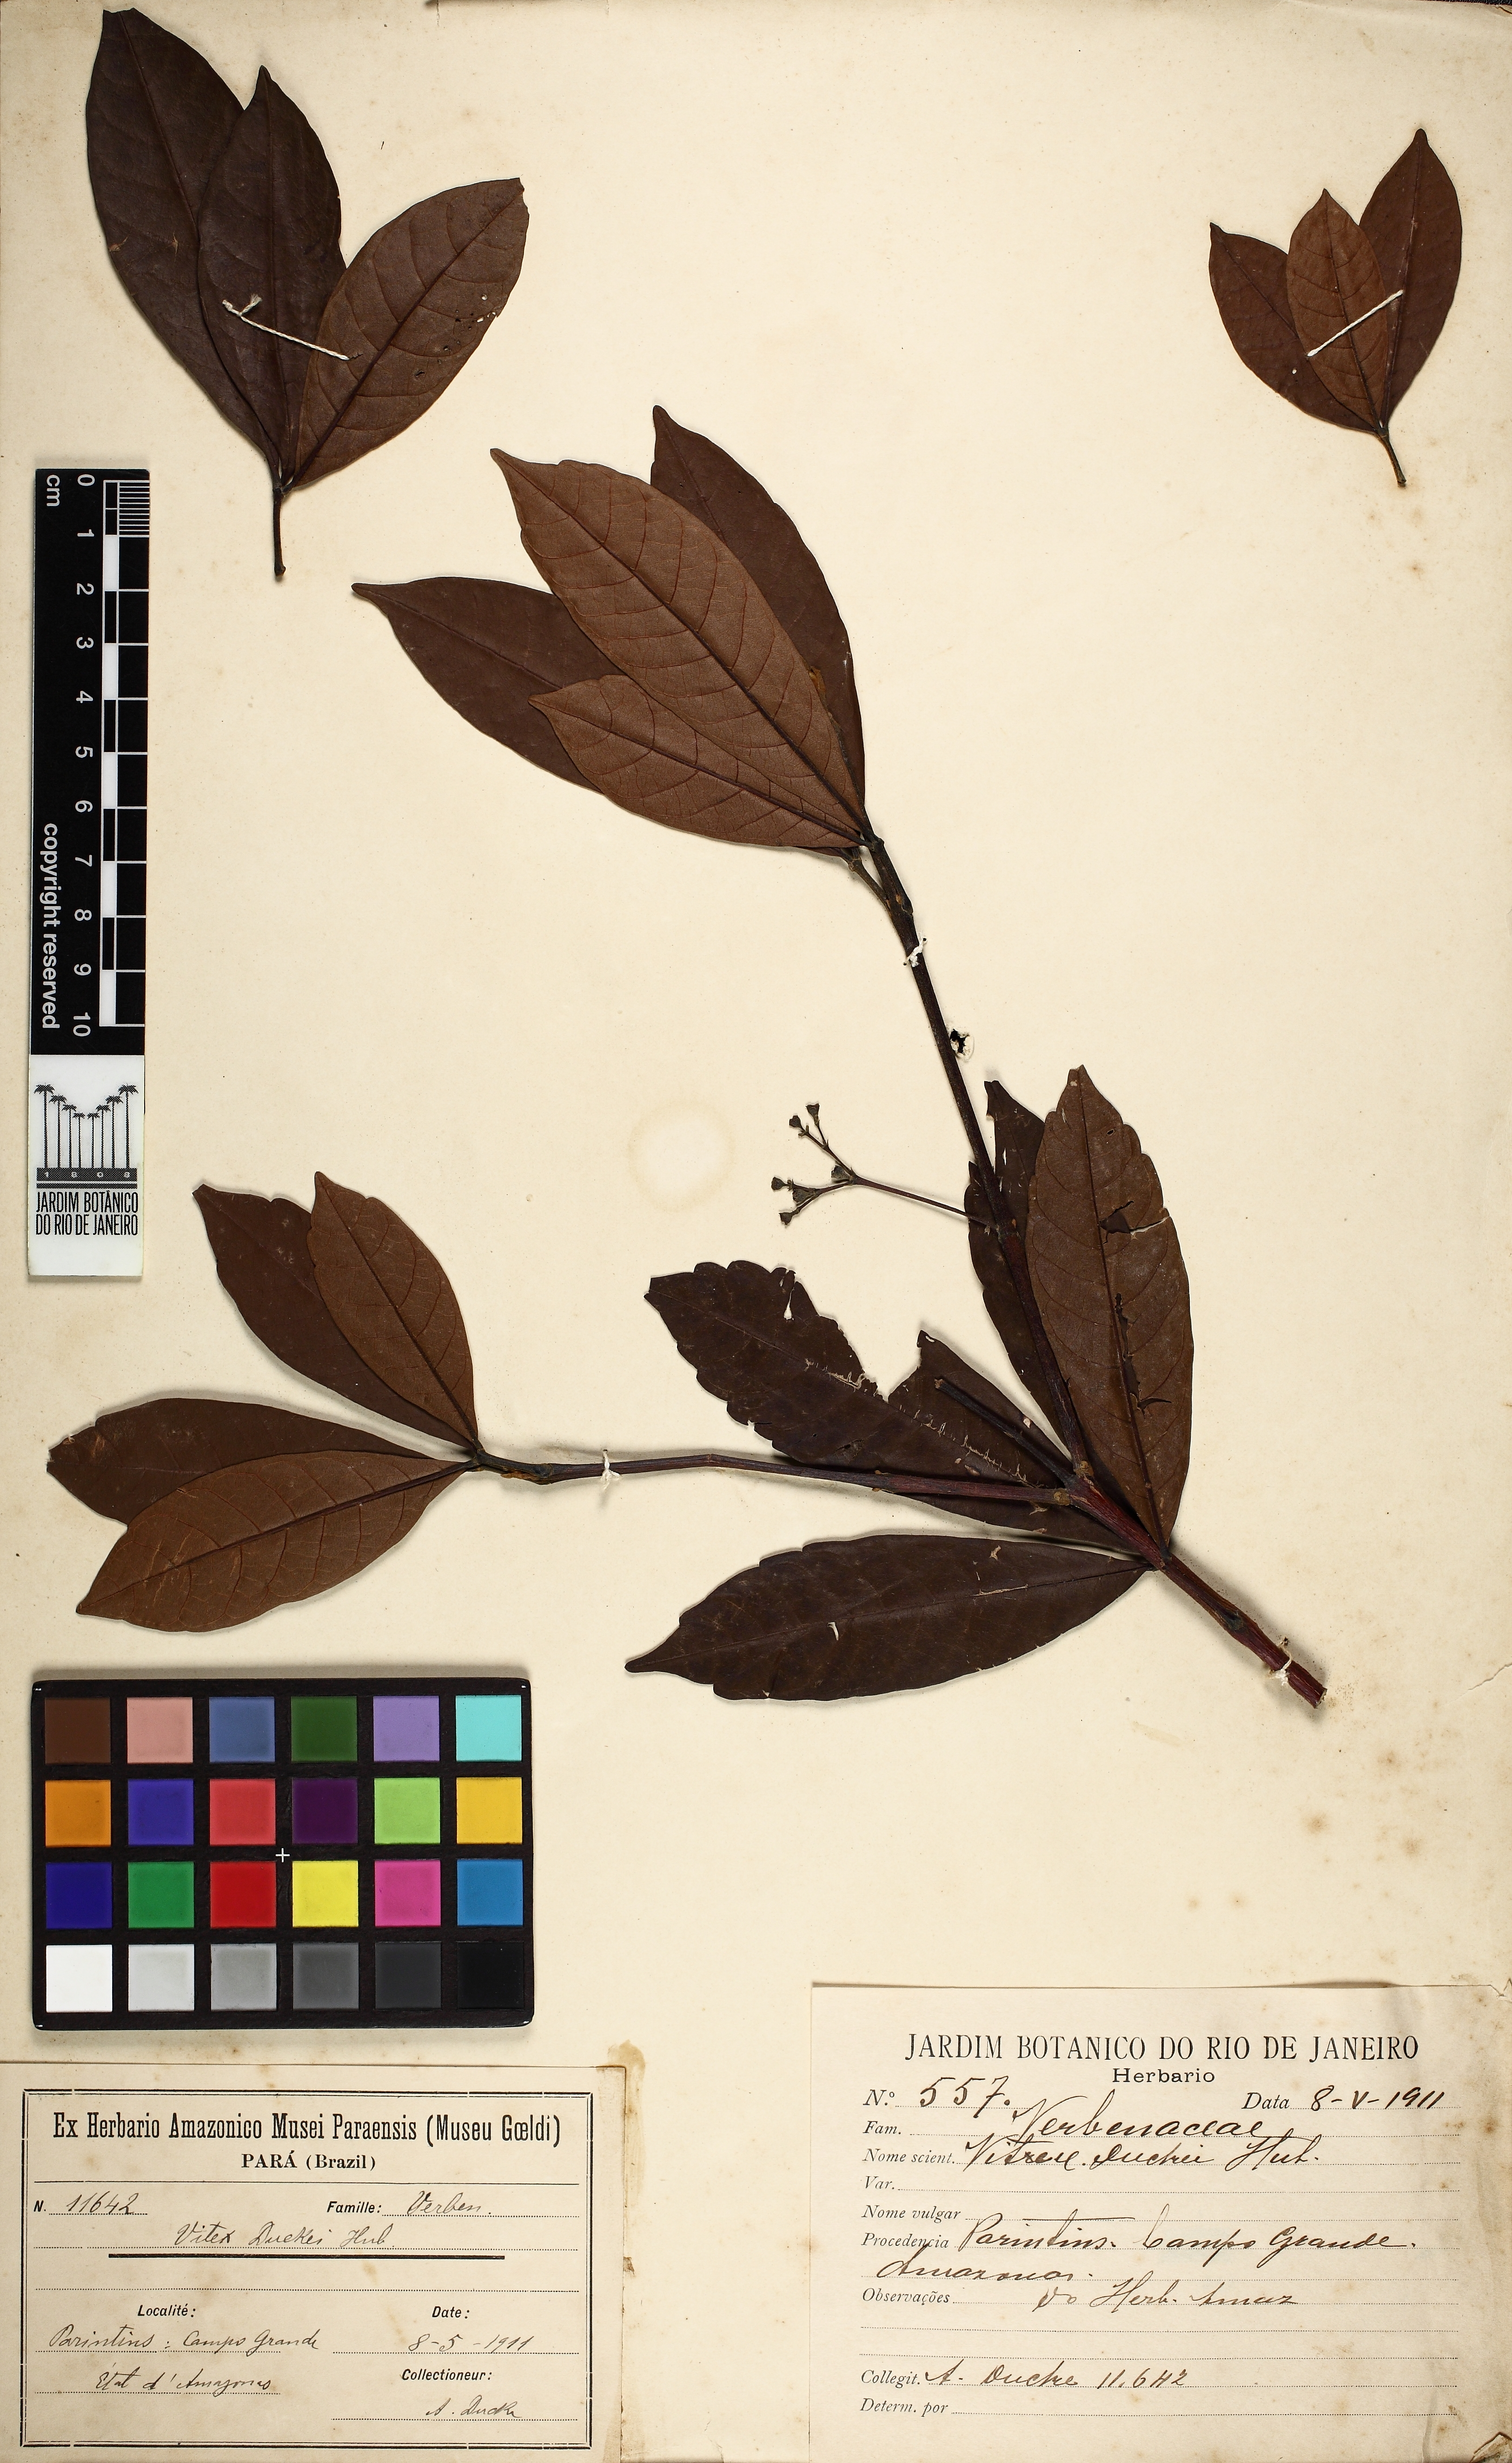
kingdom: Plantae
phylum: Tracheophyta
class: Magnoliopsida
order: Lamiales
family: Lamiaceae
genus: Vitex
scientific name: Vitex duckei
